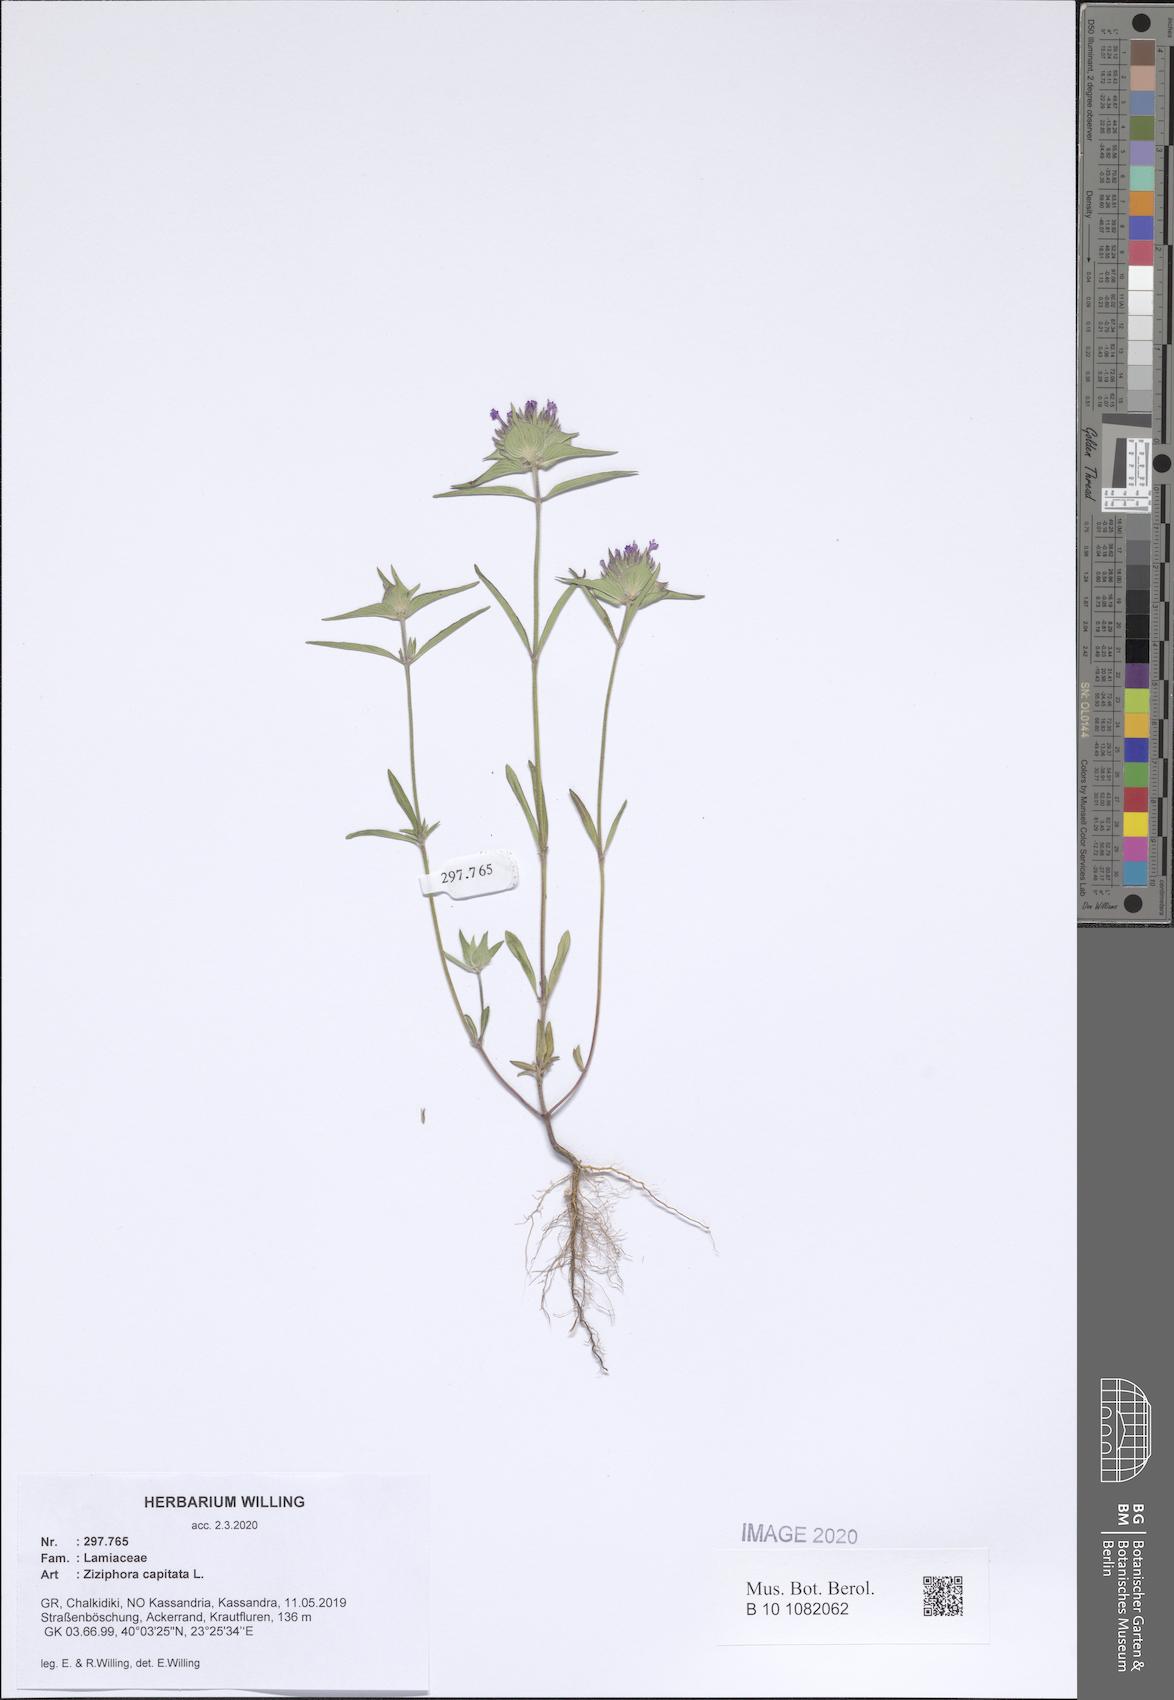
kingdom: Plantae
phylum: Tracheophyta
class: Magnoliopsida
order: Lamiales
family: Lamiaceae
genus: Ziziphora
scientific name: Ziziphora capitata
